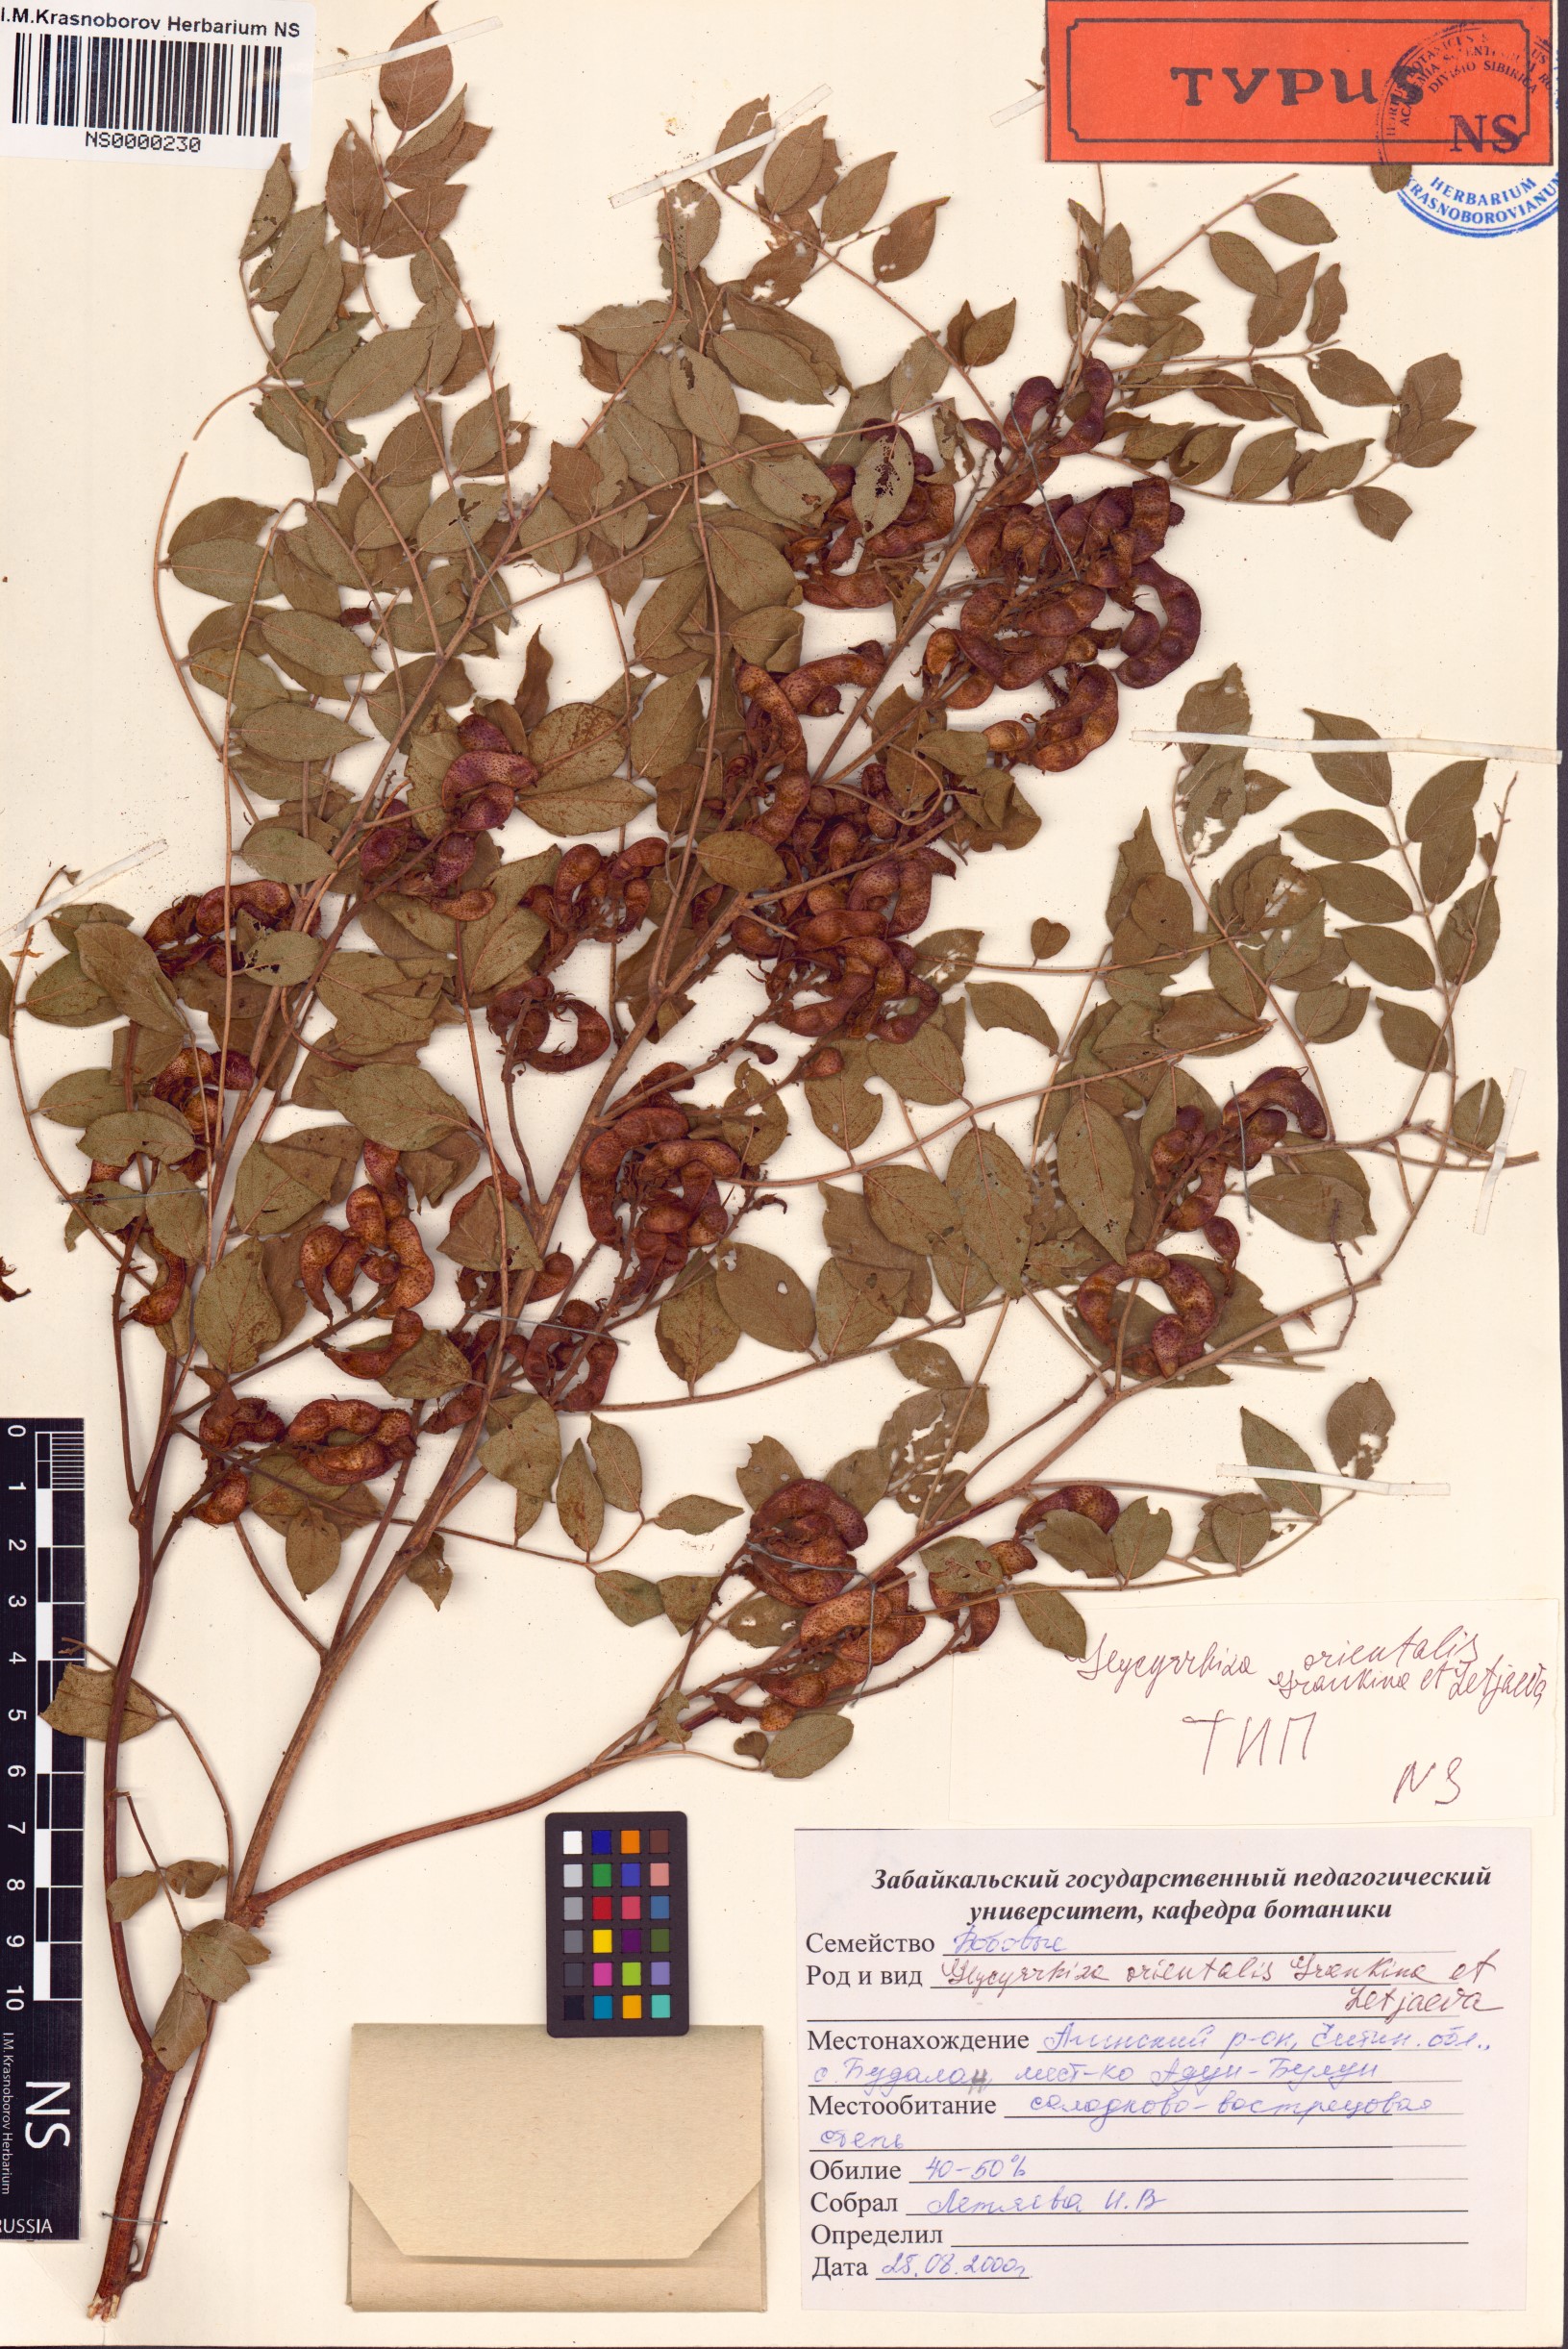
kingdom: Plantae
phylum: Tracheophyta
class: Magnoliopsida
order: Fabales
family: Fabaceae
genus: Glycyrrhiza
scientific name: Glycyrrhiza uralensis
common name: Chinese licorice
